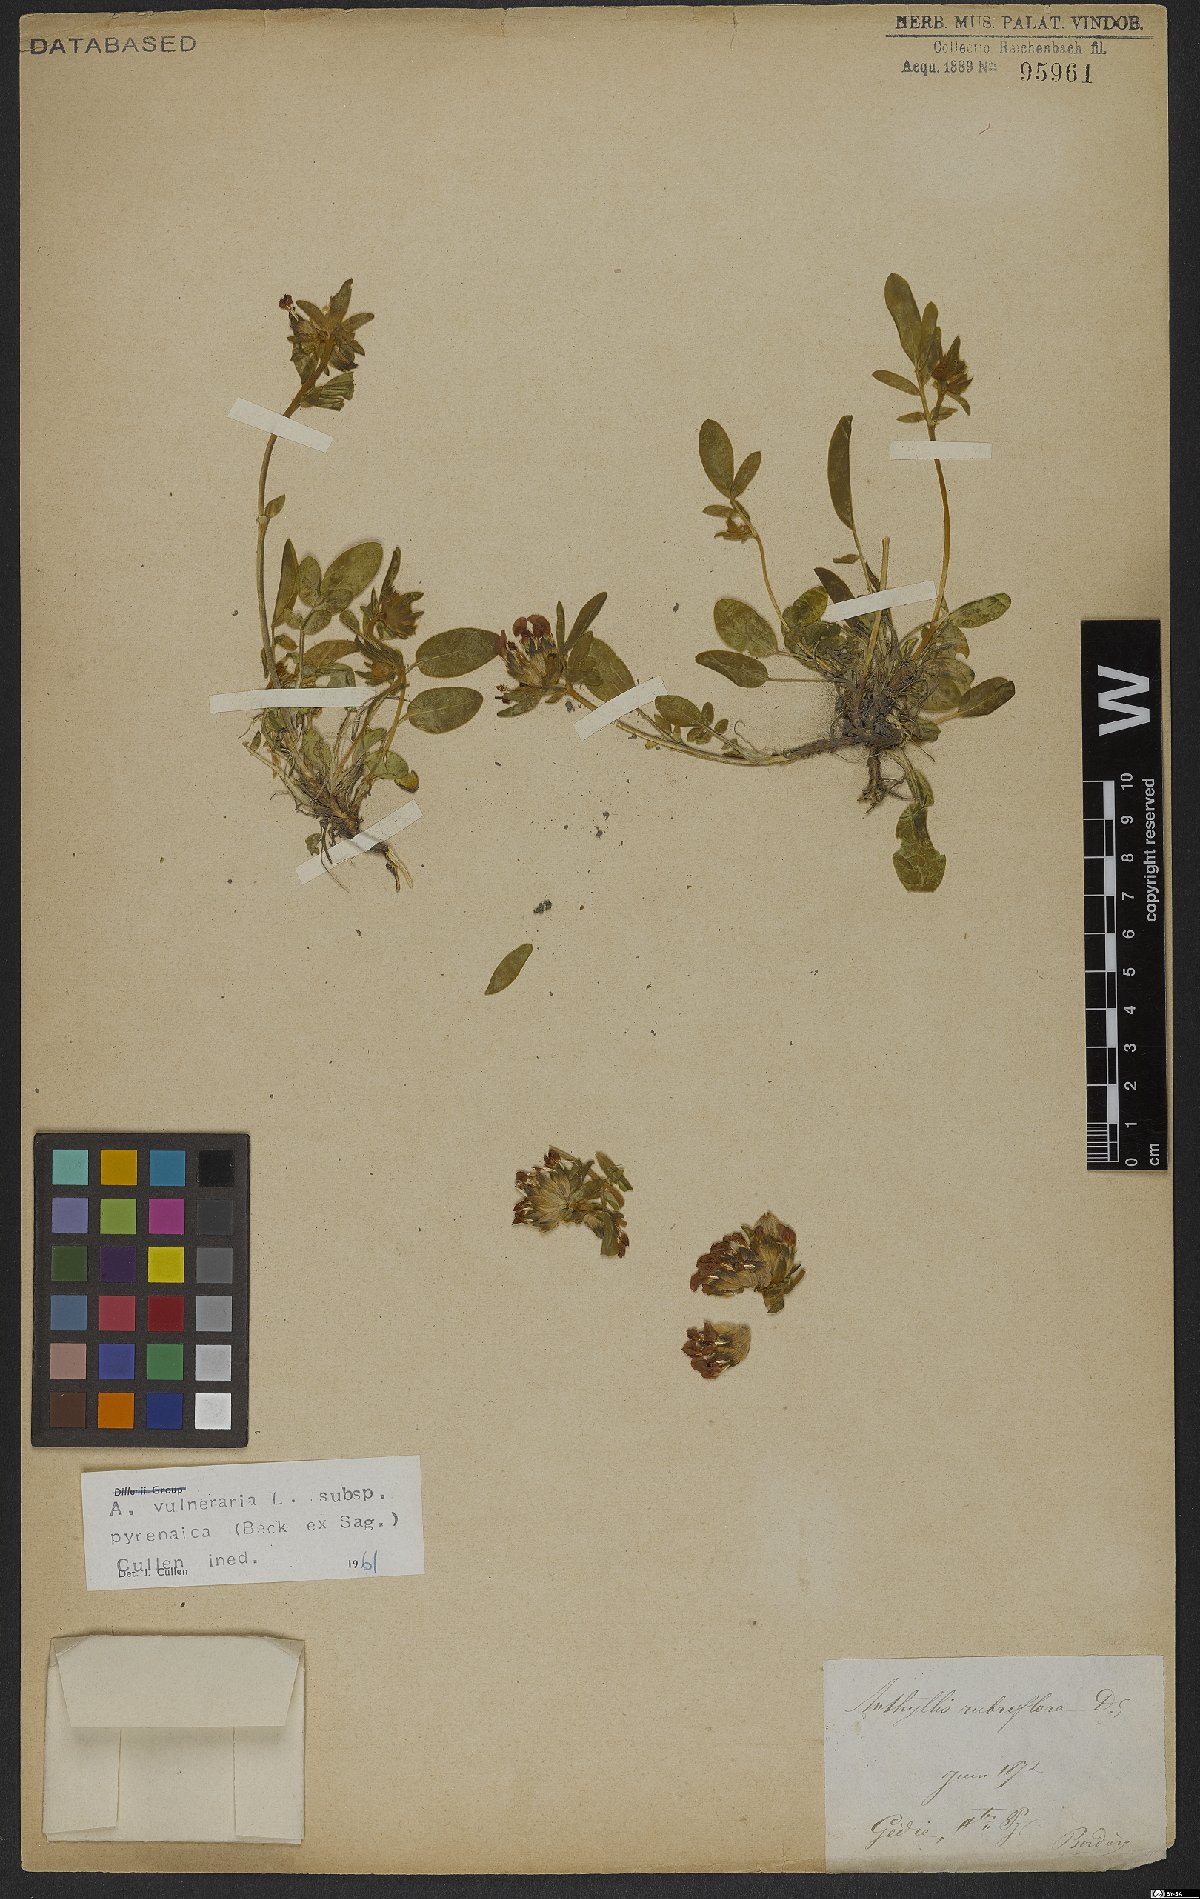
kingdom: Plantae
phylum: Tracheophyta
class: Magnoliopsida
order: Fabales
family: Fabaceae
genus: Anthyllis
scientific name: Anthyllis vulneraria
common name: Kidney vetch
